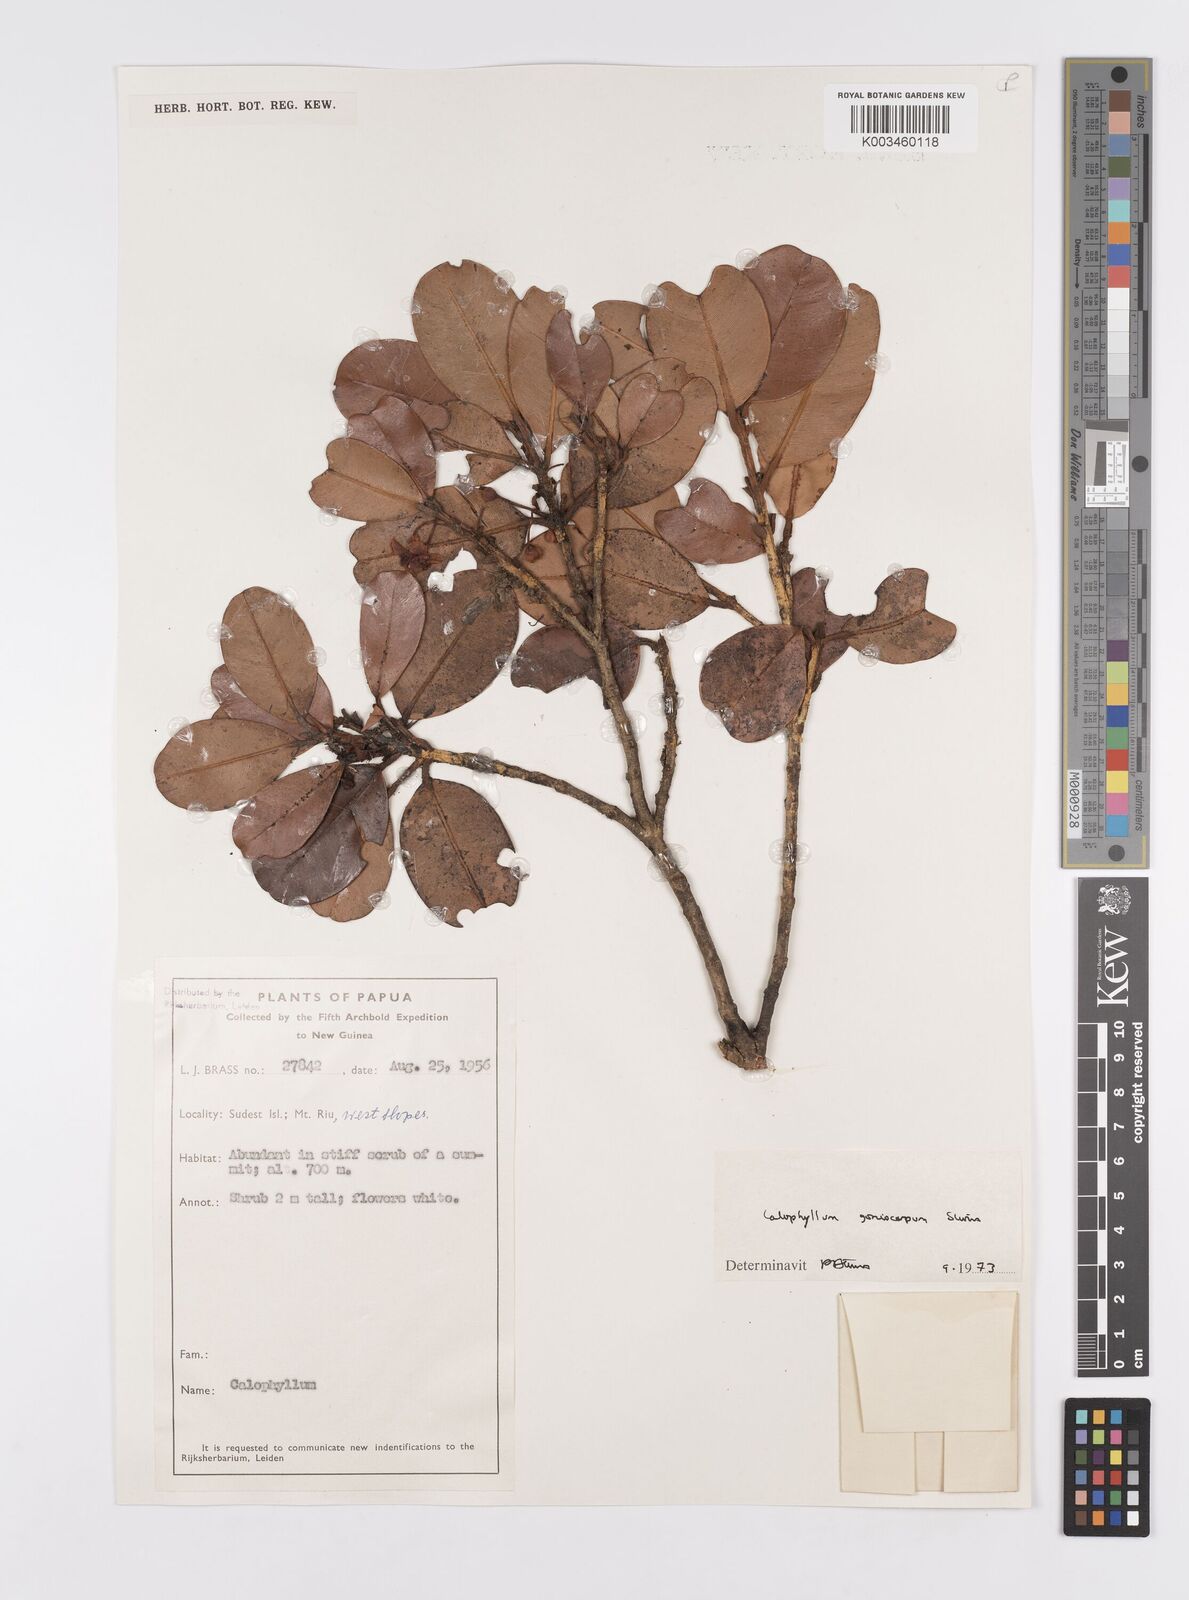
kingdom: Plantae
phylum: Tracheophyta
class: Magnoliopsida
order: Malpighiales
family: Calophyllaceae
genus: Calophyllum
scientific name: Calophyllum goniocarpum
